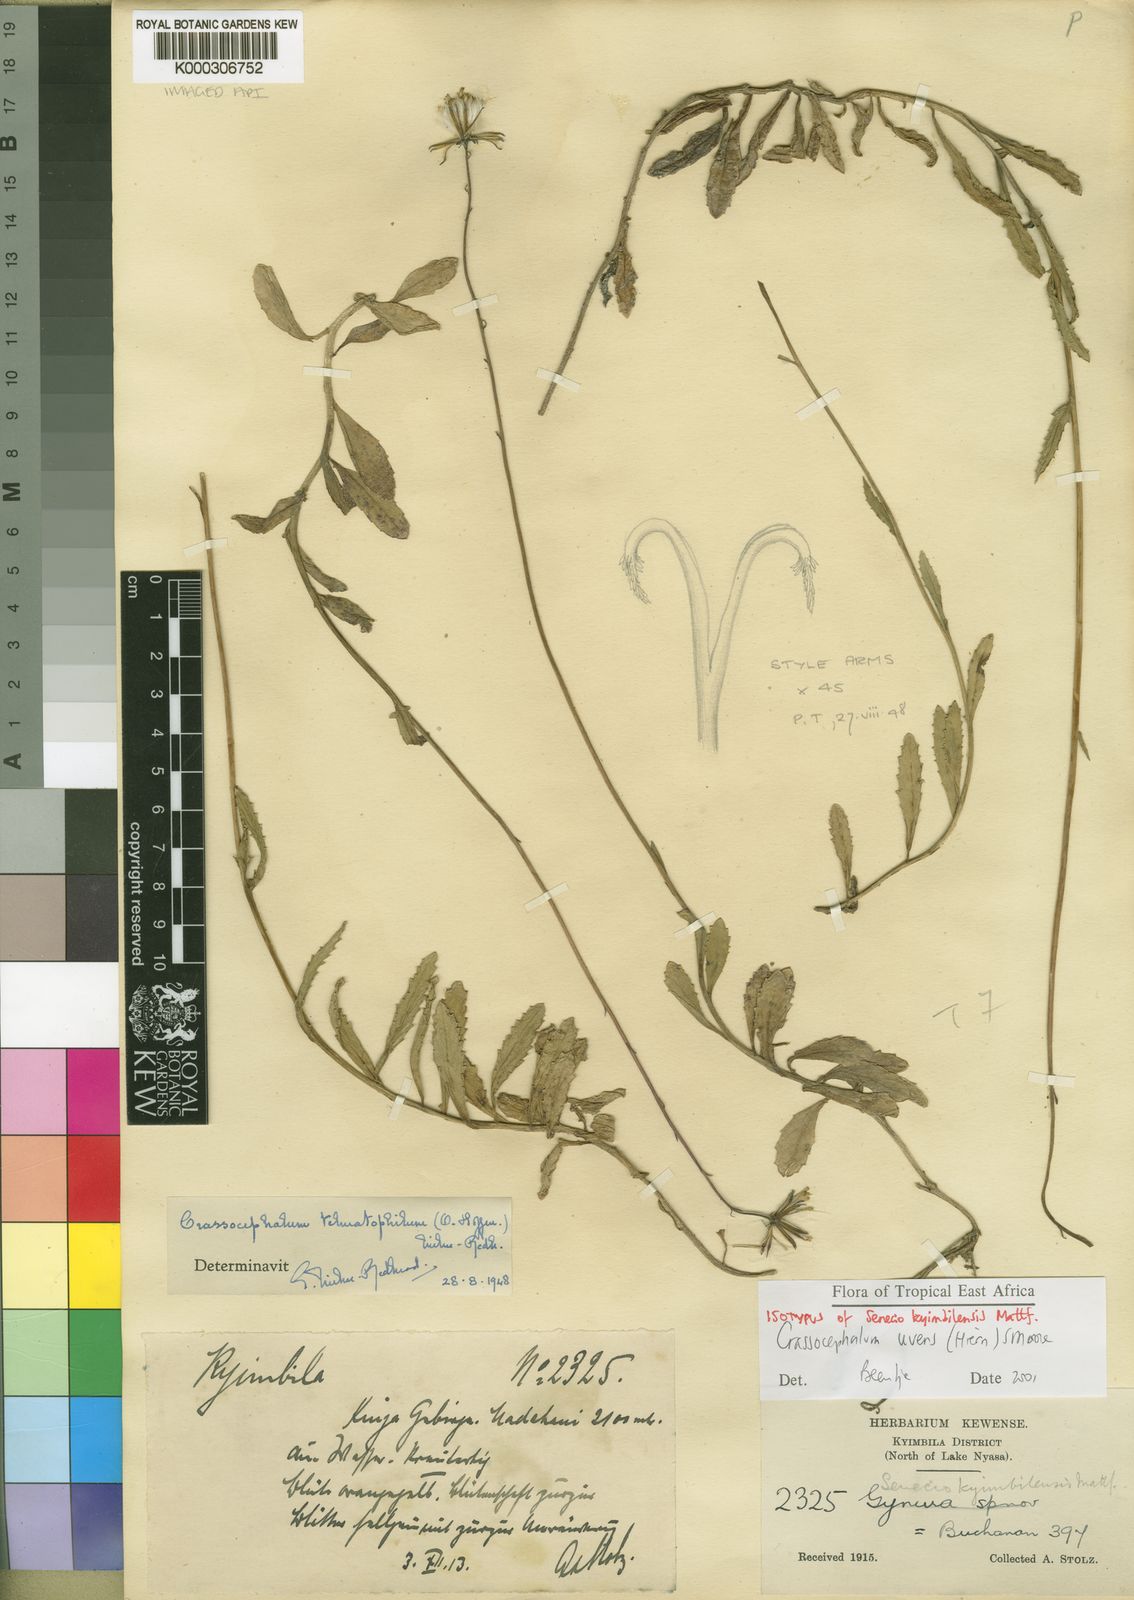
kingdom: Plantae
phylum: Tracheophyta
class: Magnoliopsida
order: Asterales
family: Asteraceae
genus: Crassocephalum
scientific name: Crassocephalum uvens
